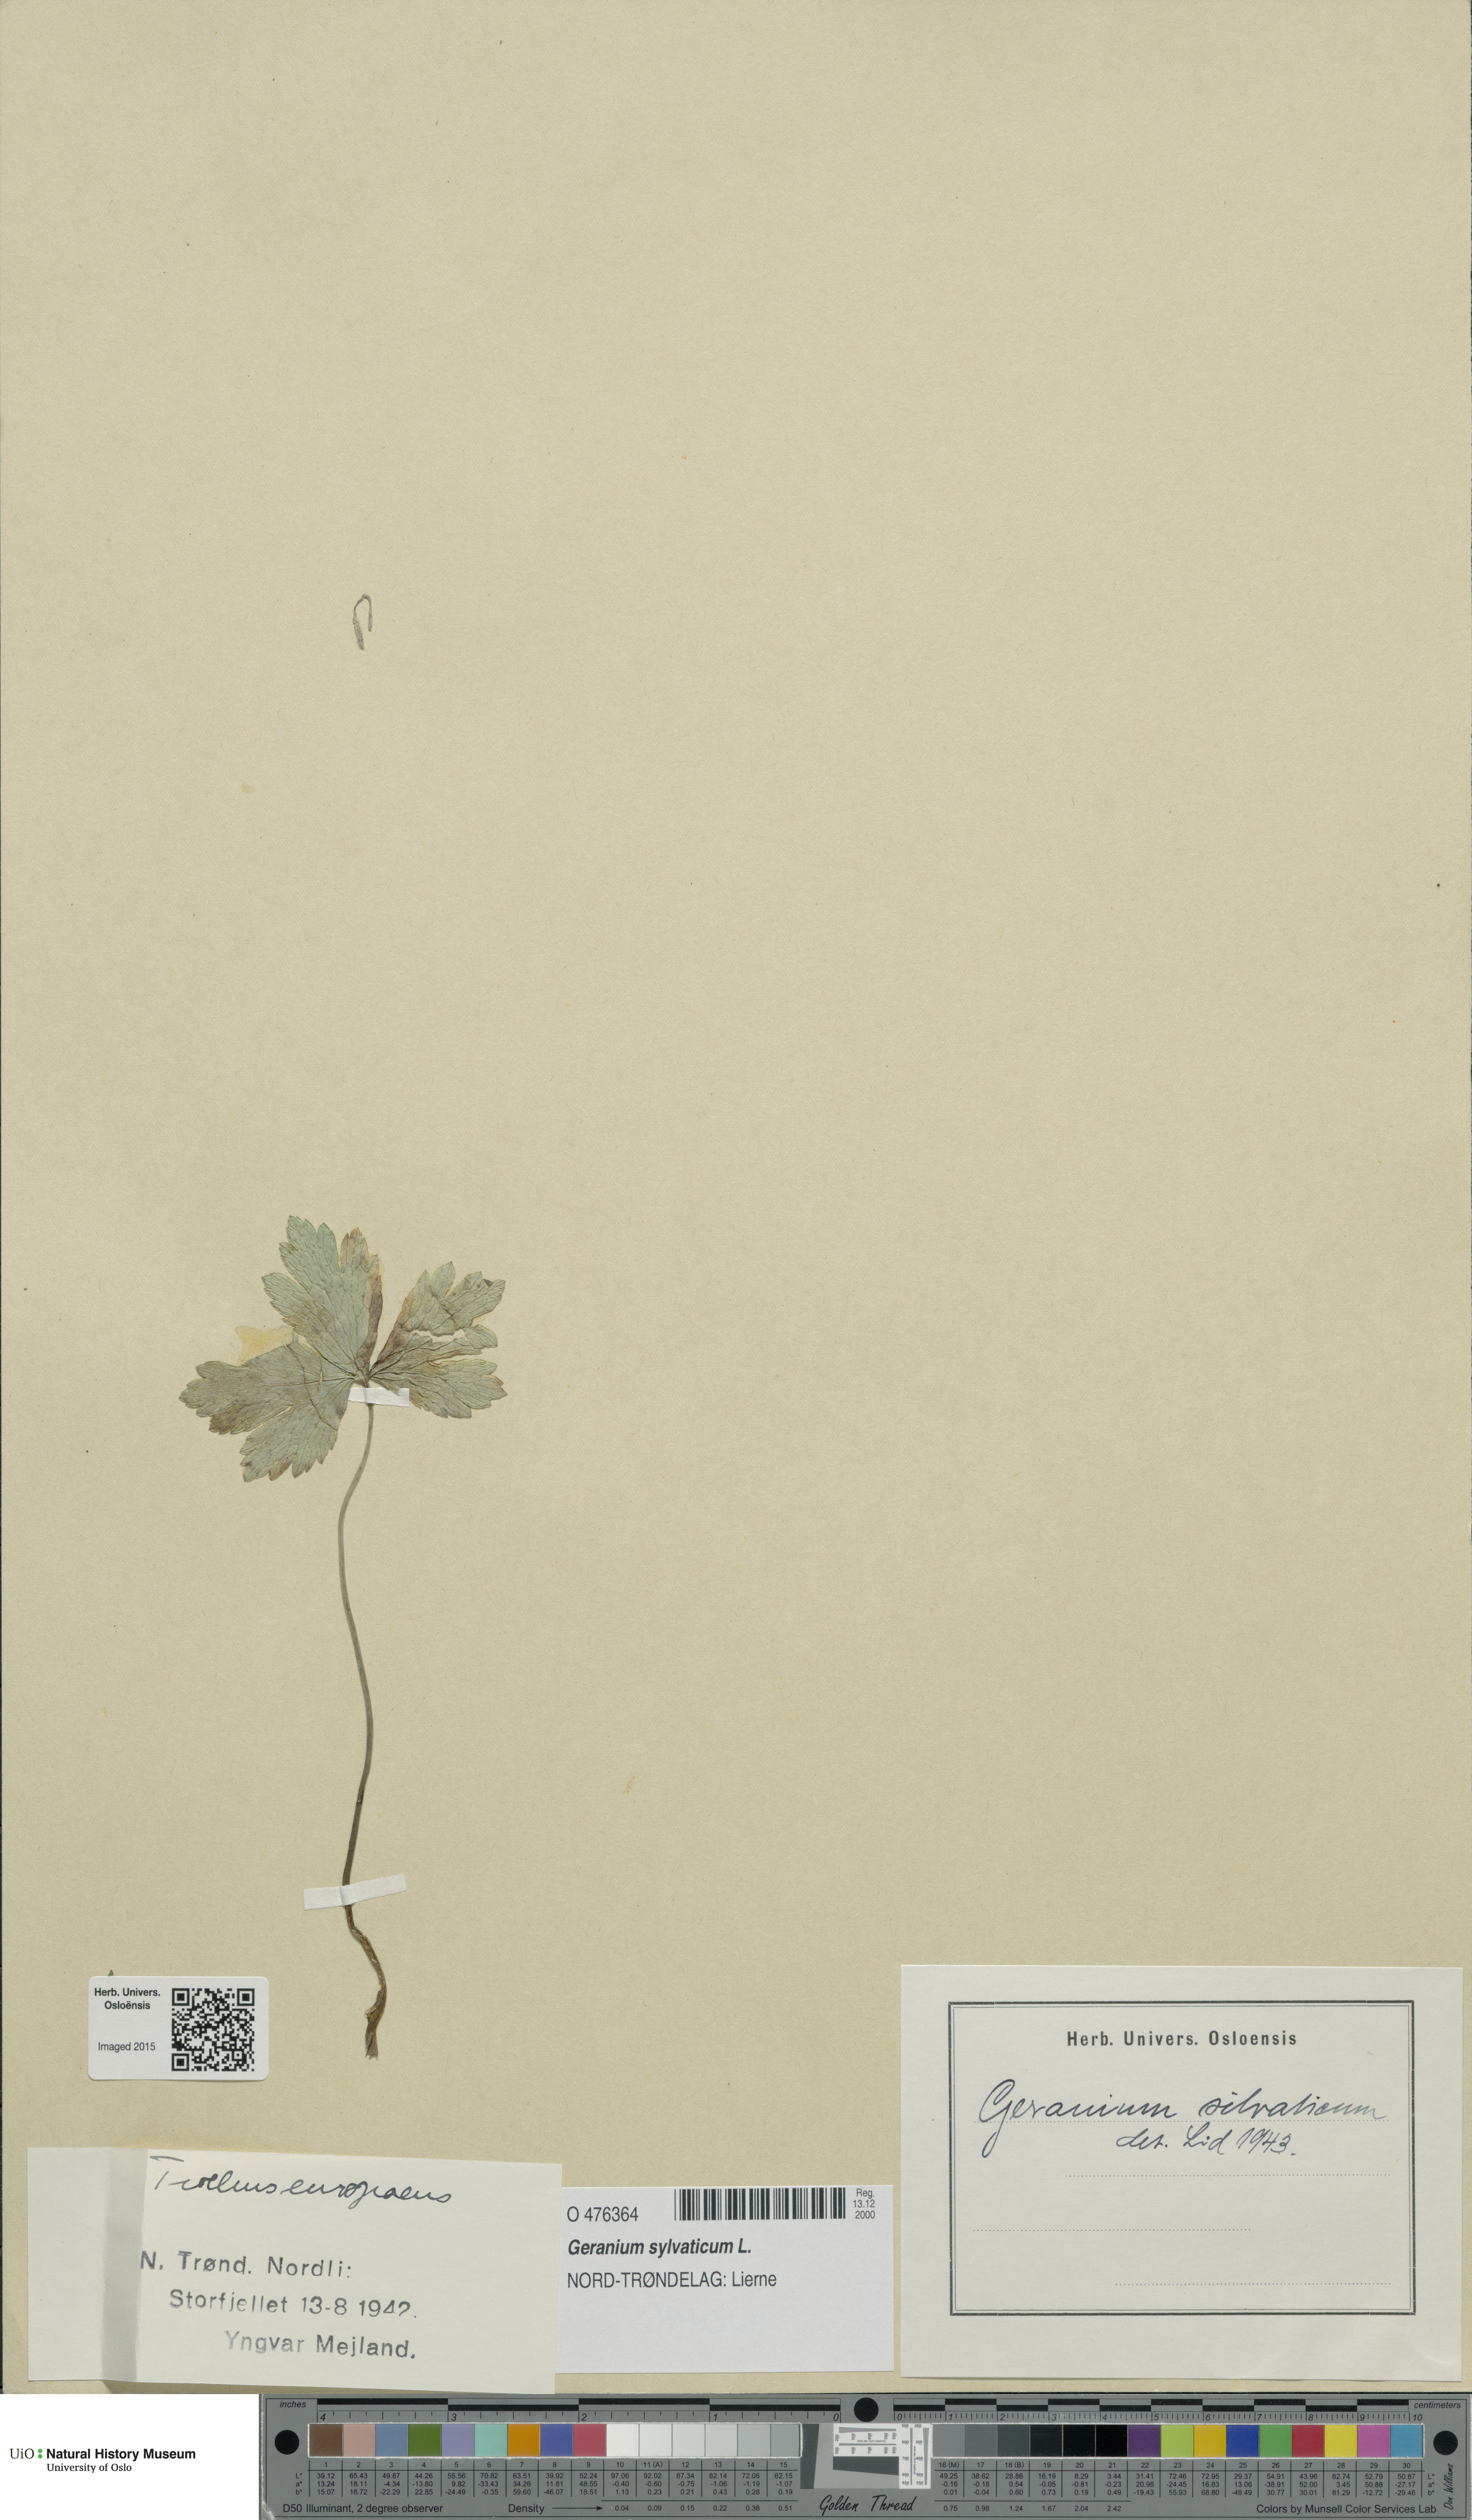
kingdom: Plantae
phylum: Tracheophyta
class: Magnoliopsida
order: Geraniales
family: Geraniaceae
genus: Geranium
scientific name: Geranium sylvaticum
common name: Wood crane's-bill
